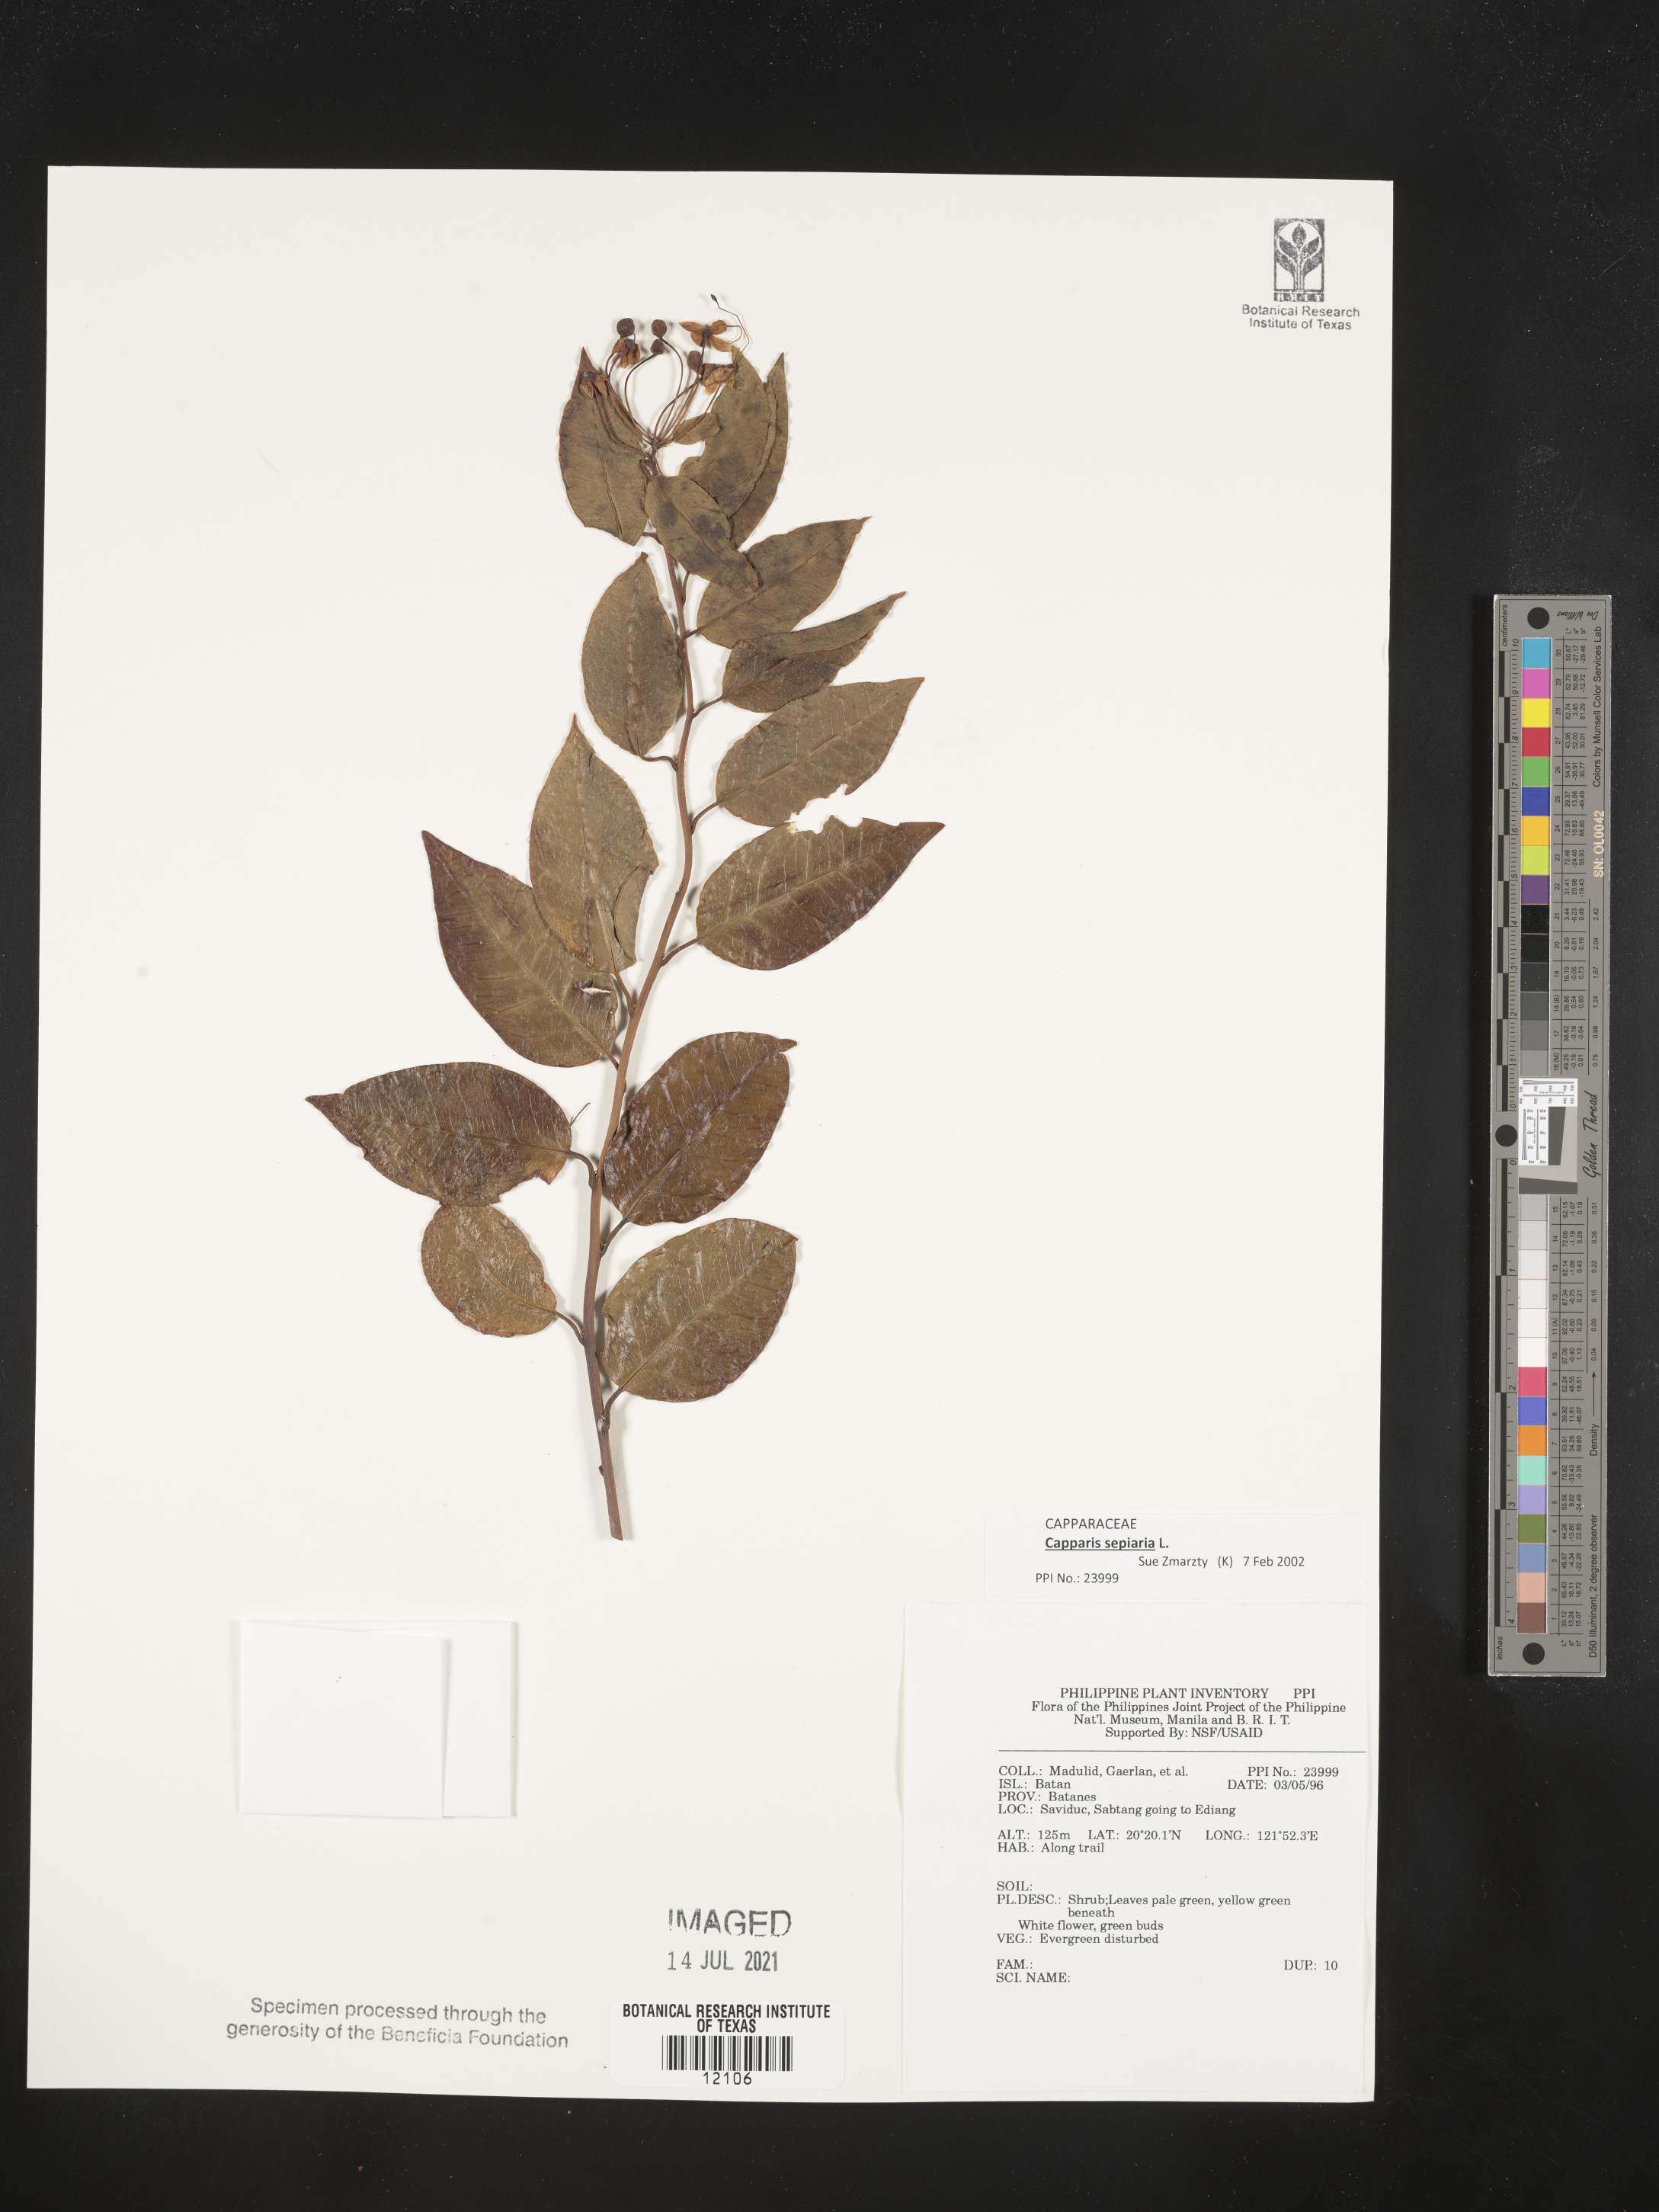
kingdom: Plantae
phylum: Tracheophyta
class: Magnoliopsida
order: Brassicales
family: Capparaceae
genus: Capparis
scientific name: Capparis sepiaria
